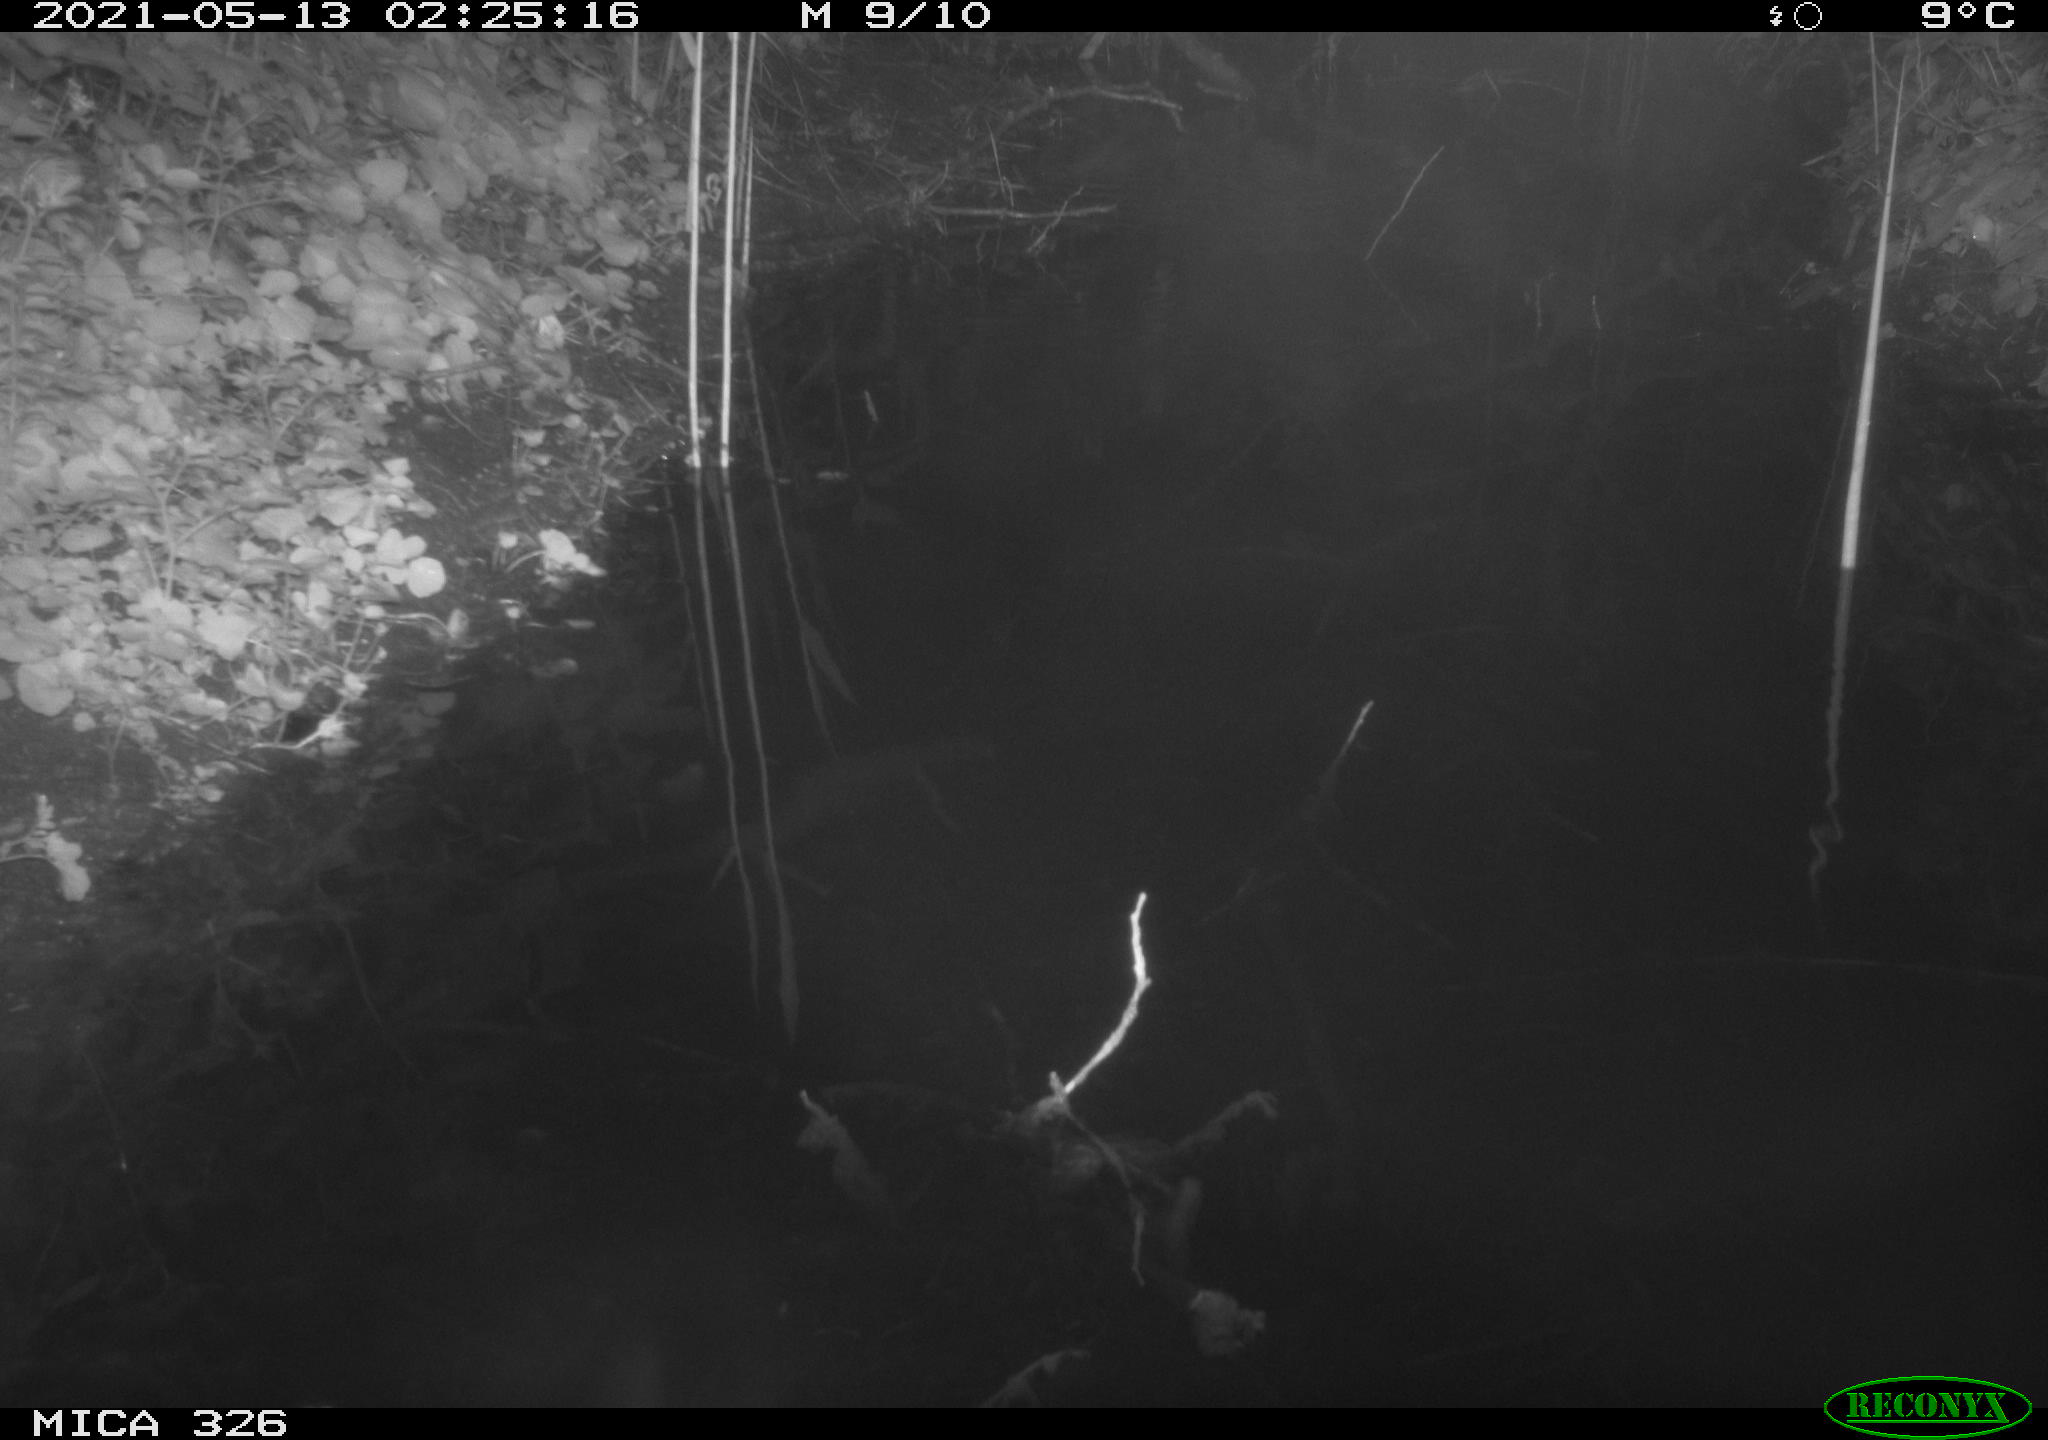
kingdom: Animalia
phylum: Chordata
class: Mammalia
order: Rodentia
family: Muridae
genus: Rattus
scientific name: Rattus norvegicus
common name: Brown rat
